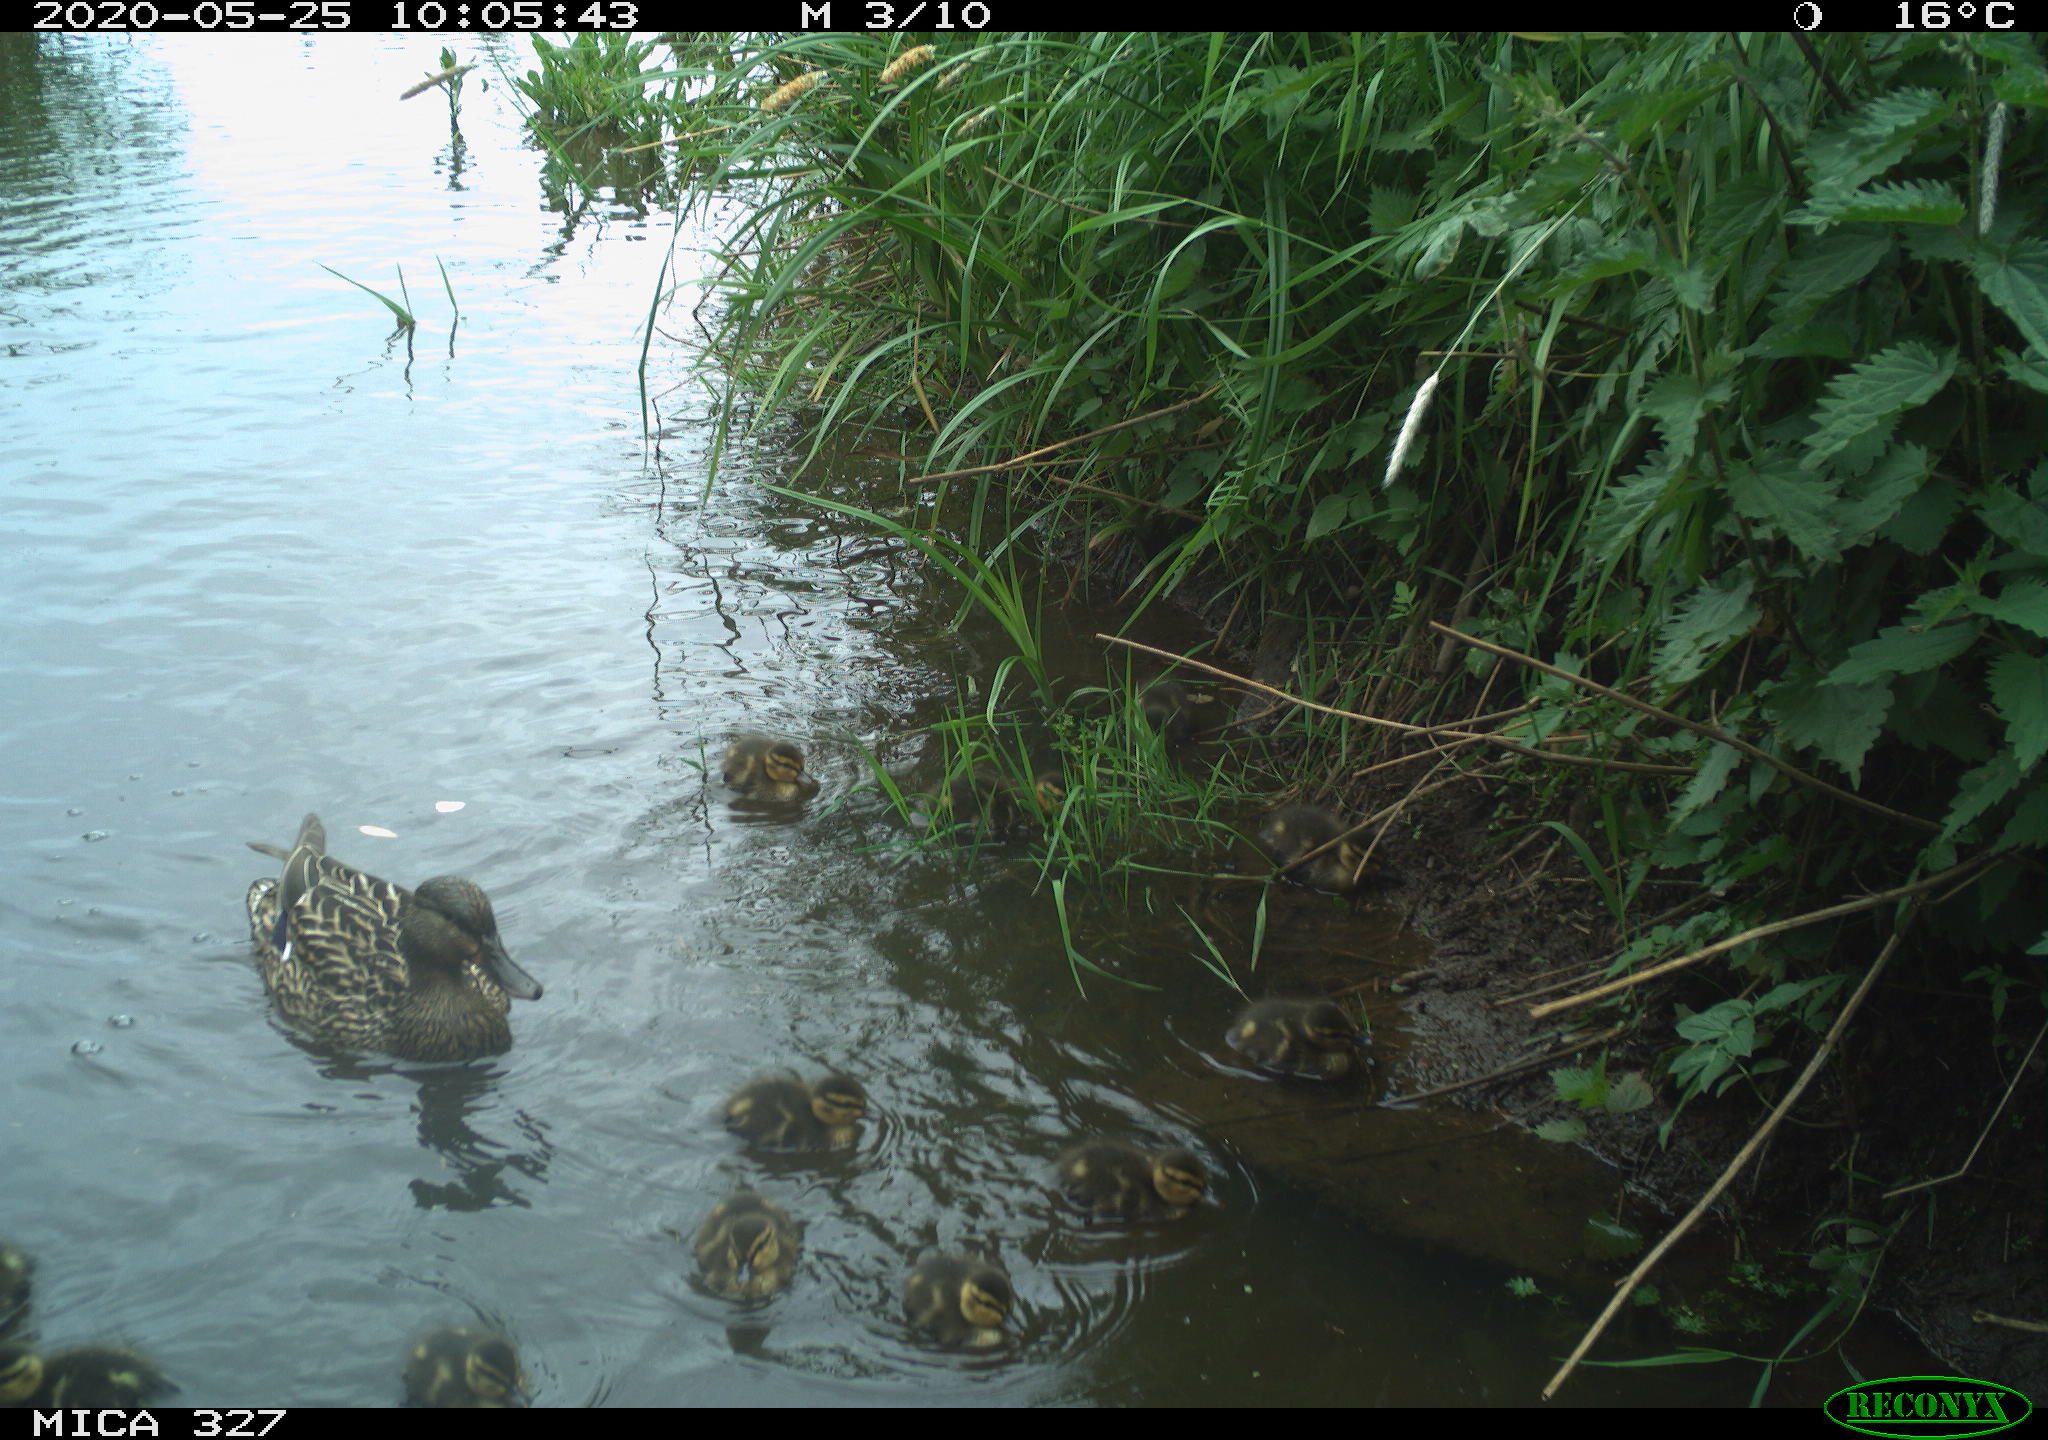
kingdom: Animalia
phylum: Chordata
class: Aves
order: Anseriformes
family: Anatidae
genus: Anas
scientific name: Anas platyrhynchos
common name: Mallard
